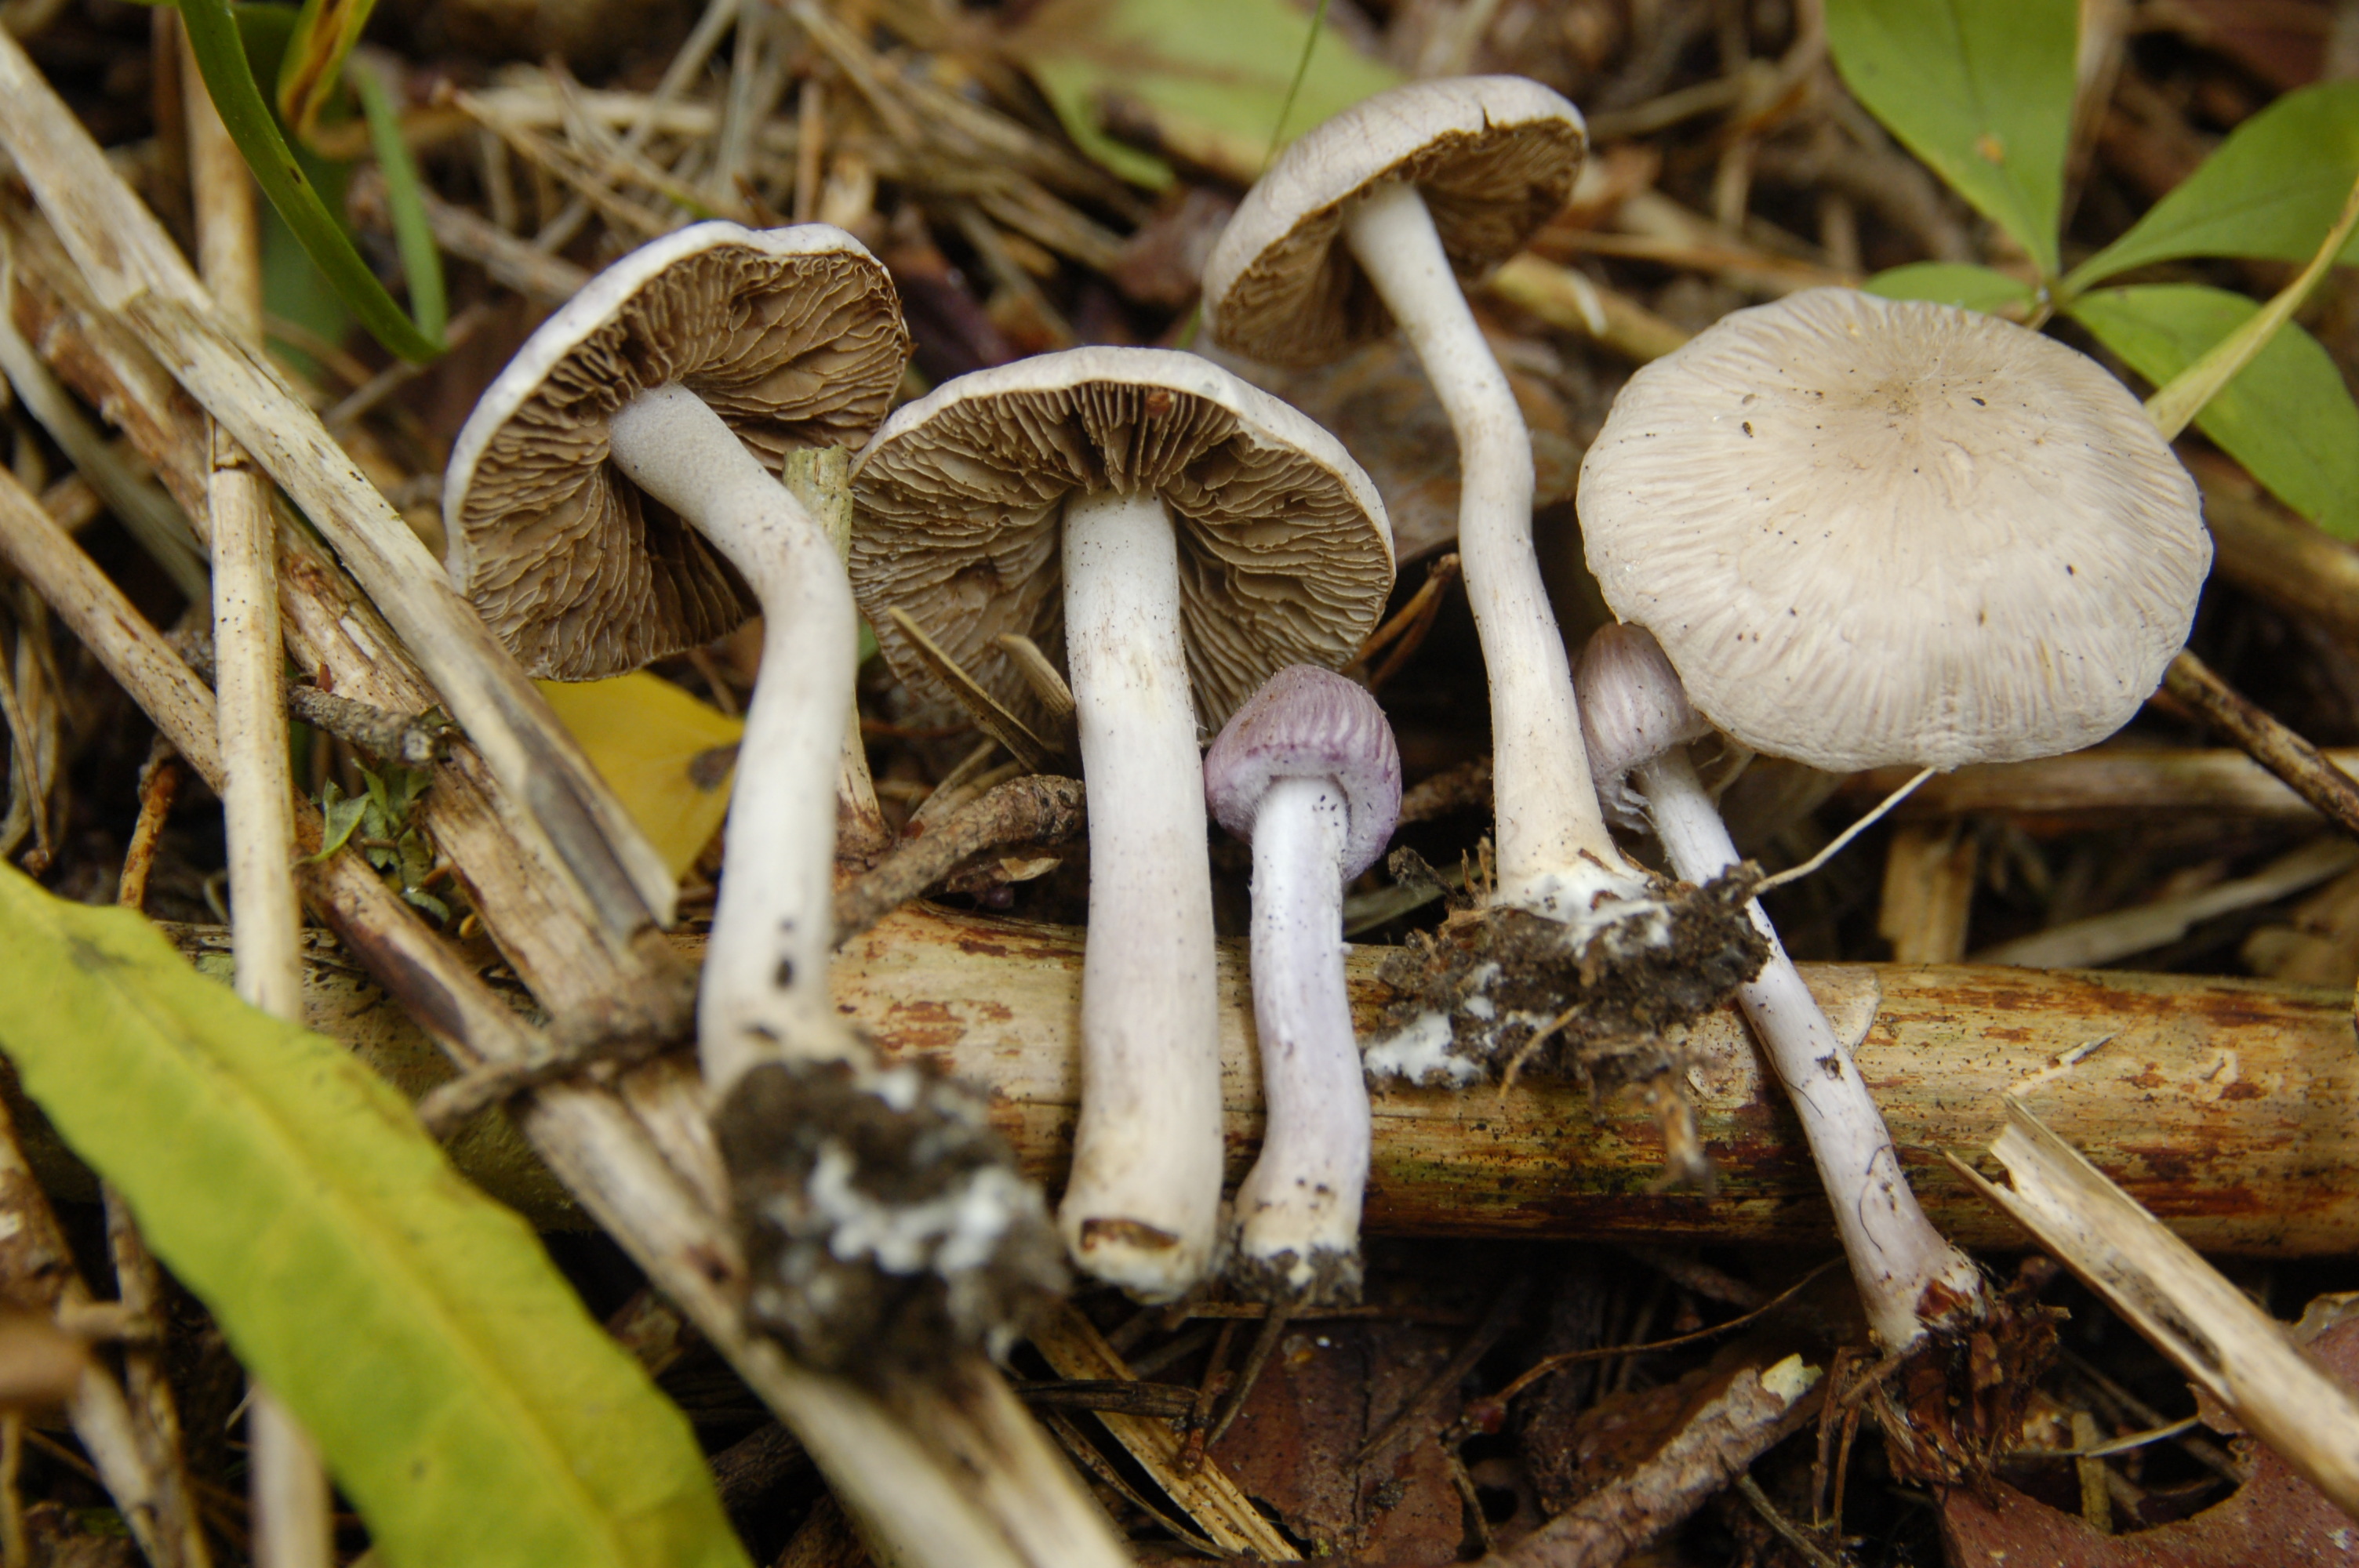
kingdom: Fungi
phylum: Basidiomycota
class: Agaricomycetes
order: Agaricales
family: Inocybaceae
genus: Inocybe
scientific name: Inocybe geophylla
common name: White fibrecap
